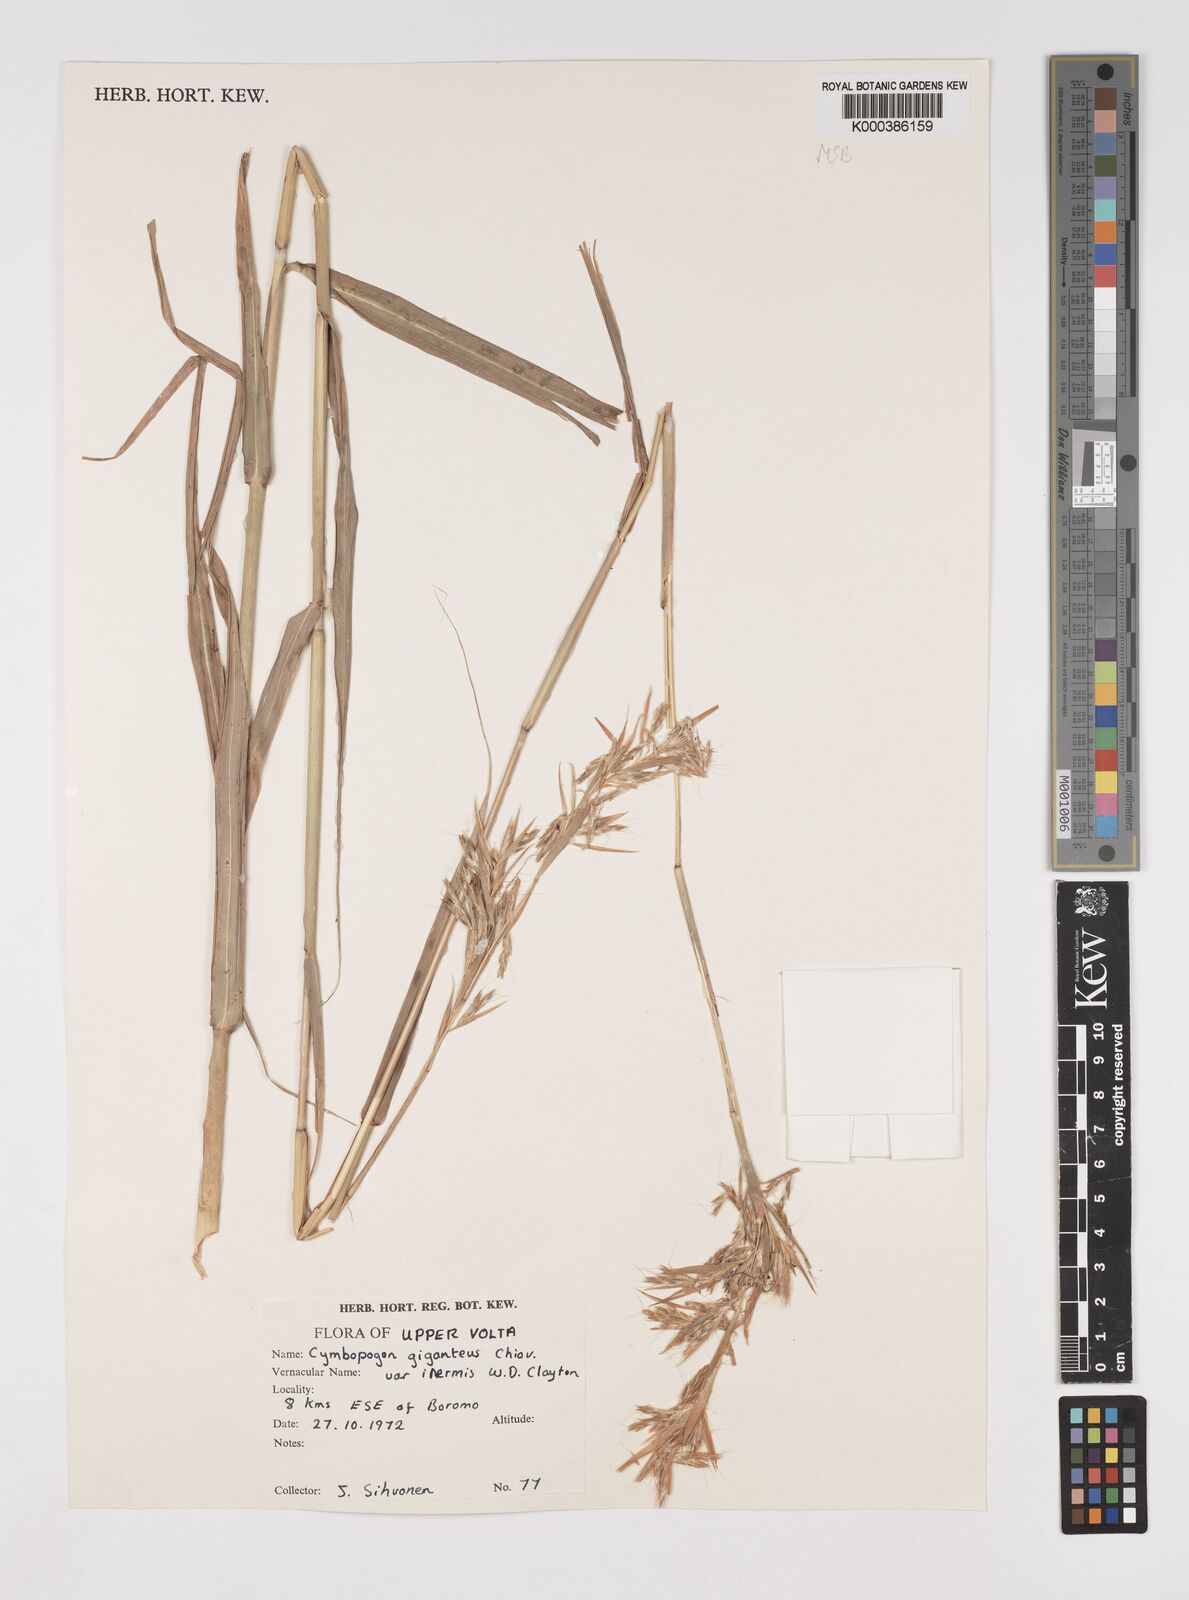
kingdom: Plantae
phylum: Tracheophyta
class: Liliopsida
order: Poales
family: Poaceae
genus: Cymbopogon
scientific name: Cymbopogon giganteus
